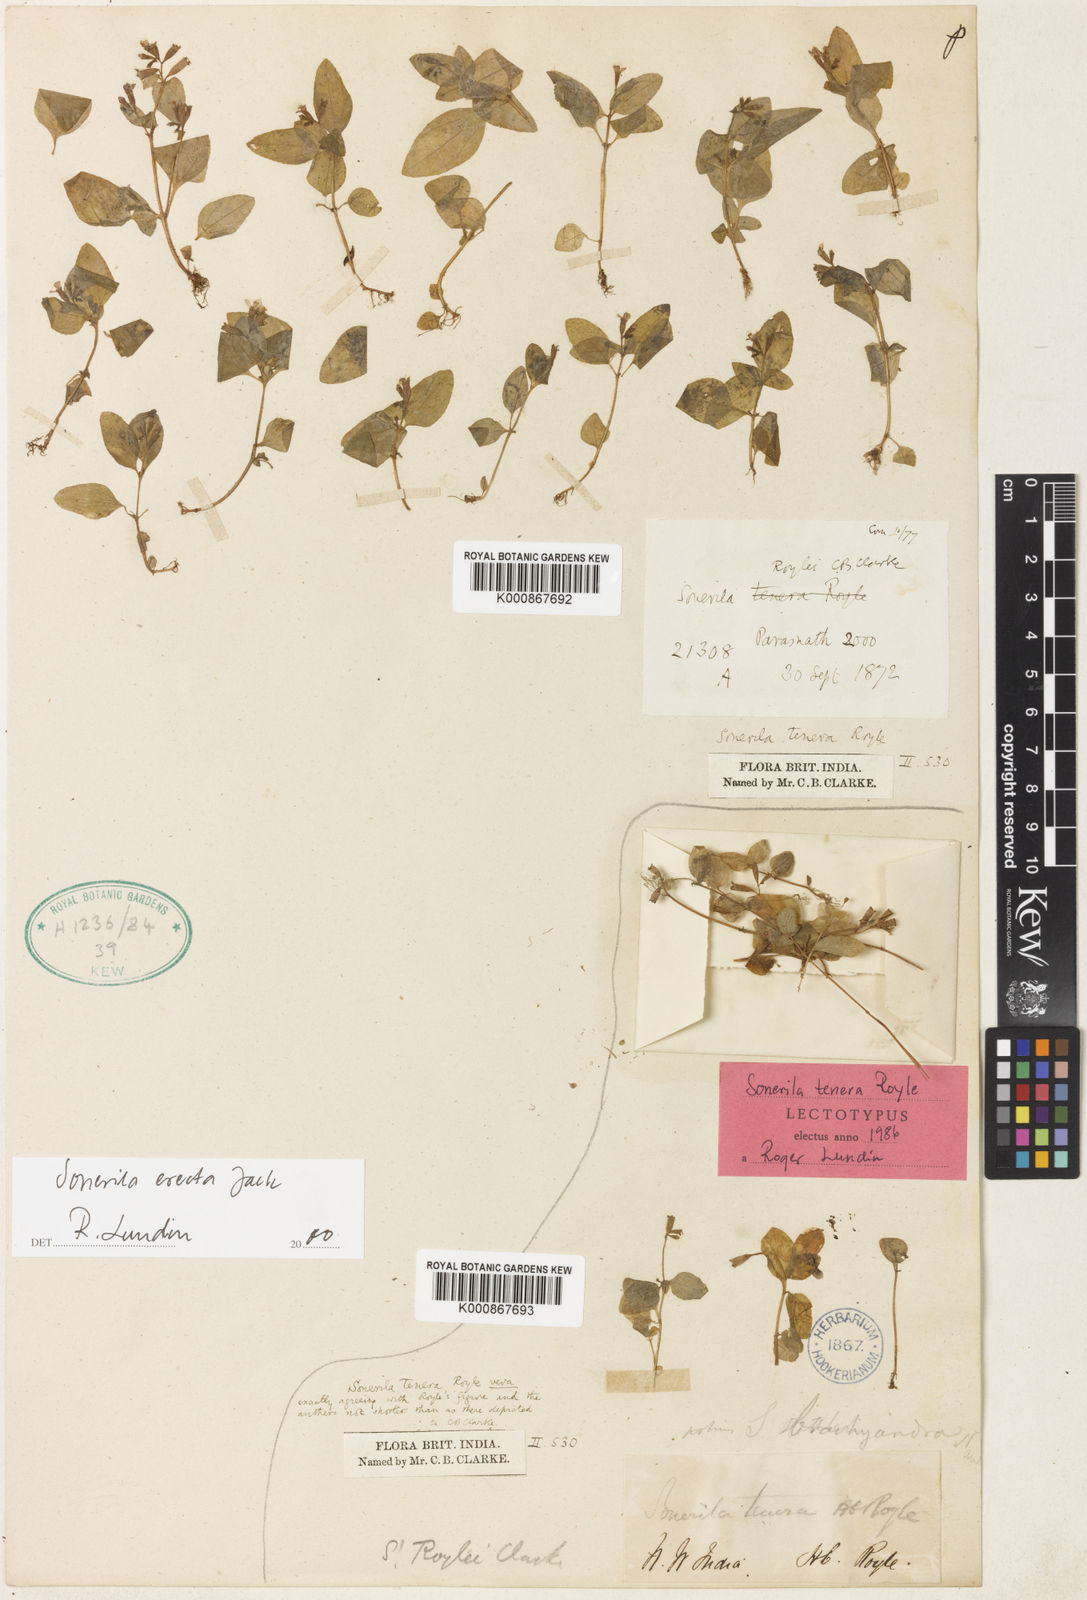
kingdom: Plantae
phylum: Tracheophyta
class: Magnoliopsida
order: Myrtales
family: Melastomataceae
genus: Sonerila
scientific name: Sonerila erecta
